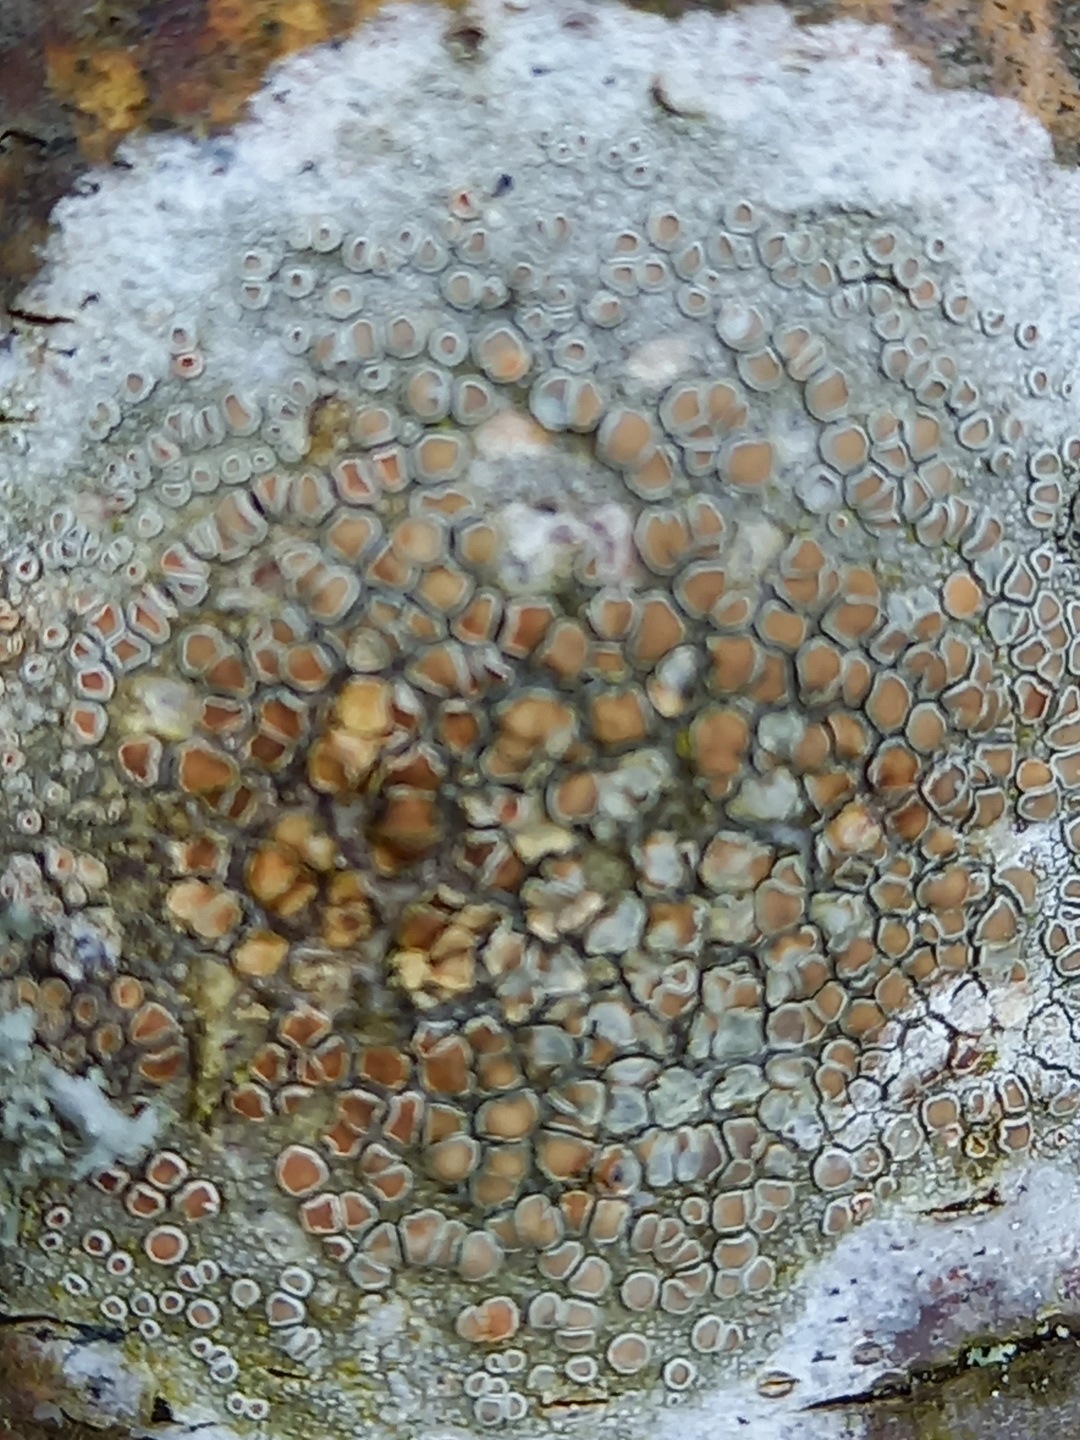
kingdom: Fungi
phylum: Ascomycota
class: Lecanoromycetes
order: Lecanorales
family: Lecanoraceae
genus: Lecanora
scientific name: Lecanora chlarotera
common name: brun kantskivelav
